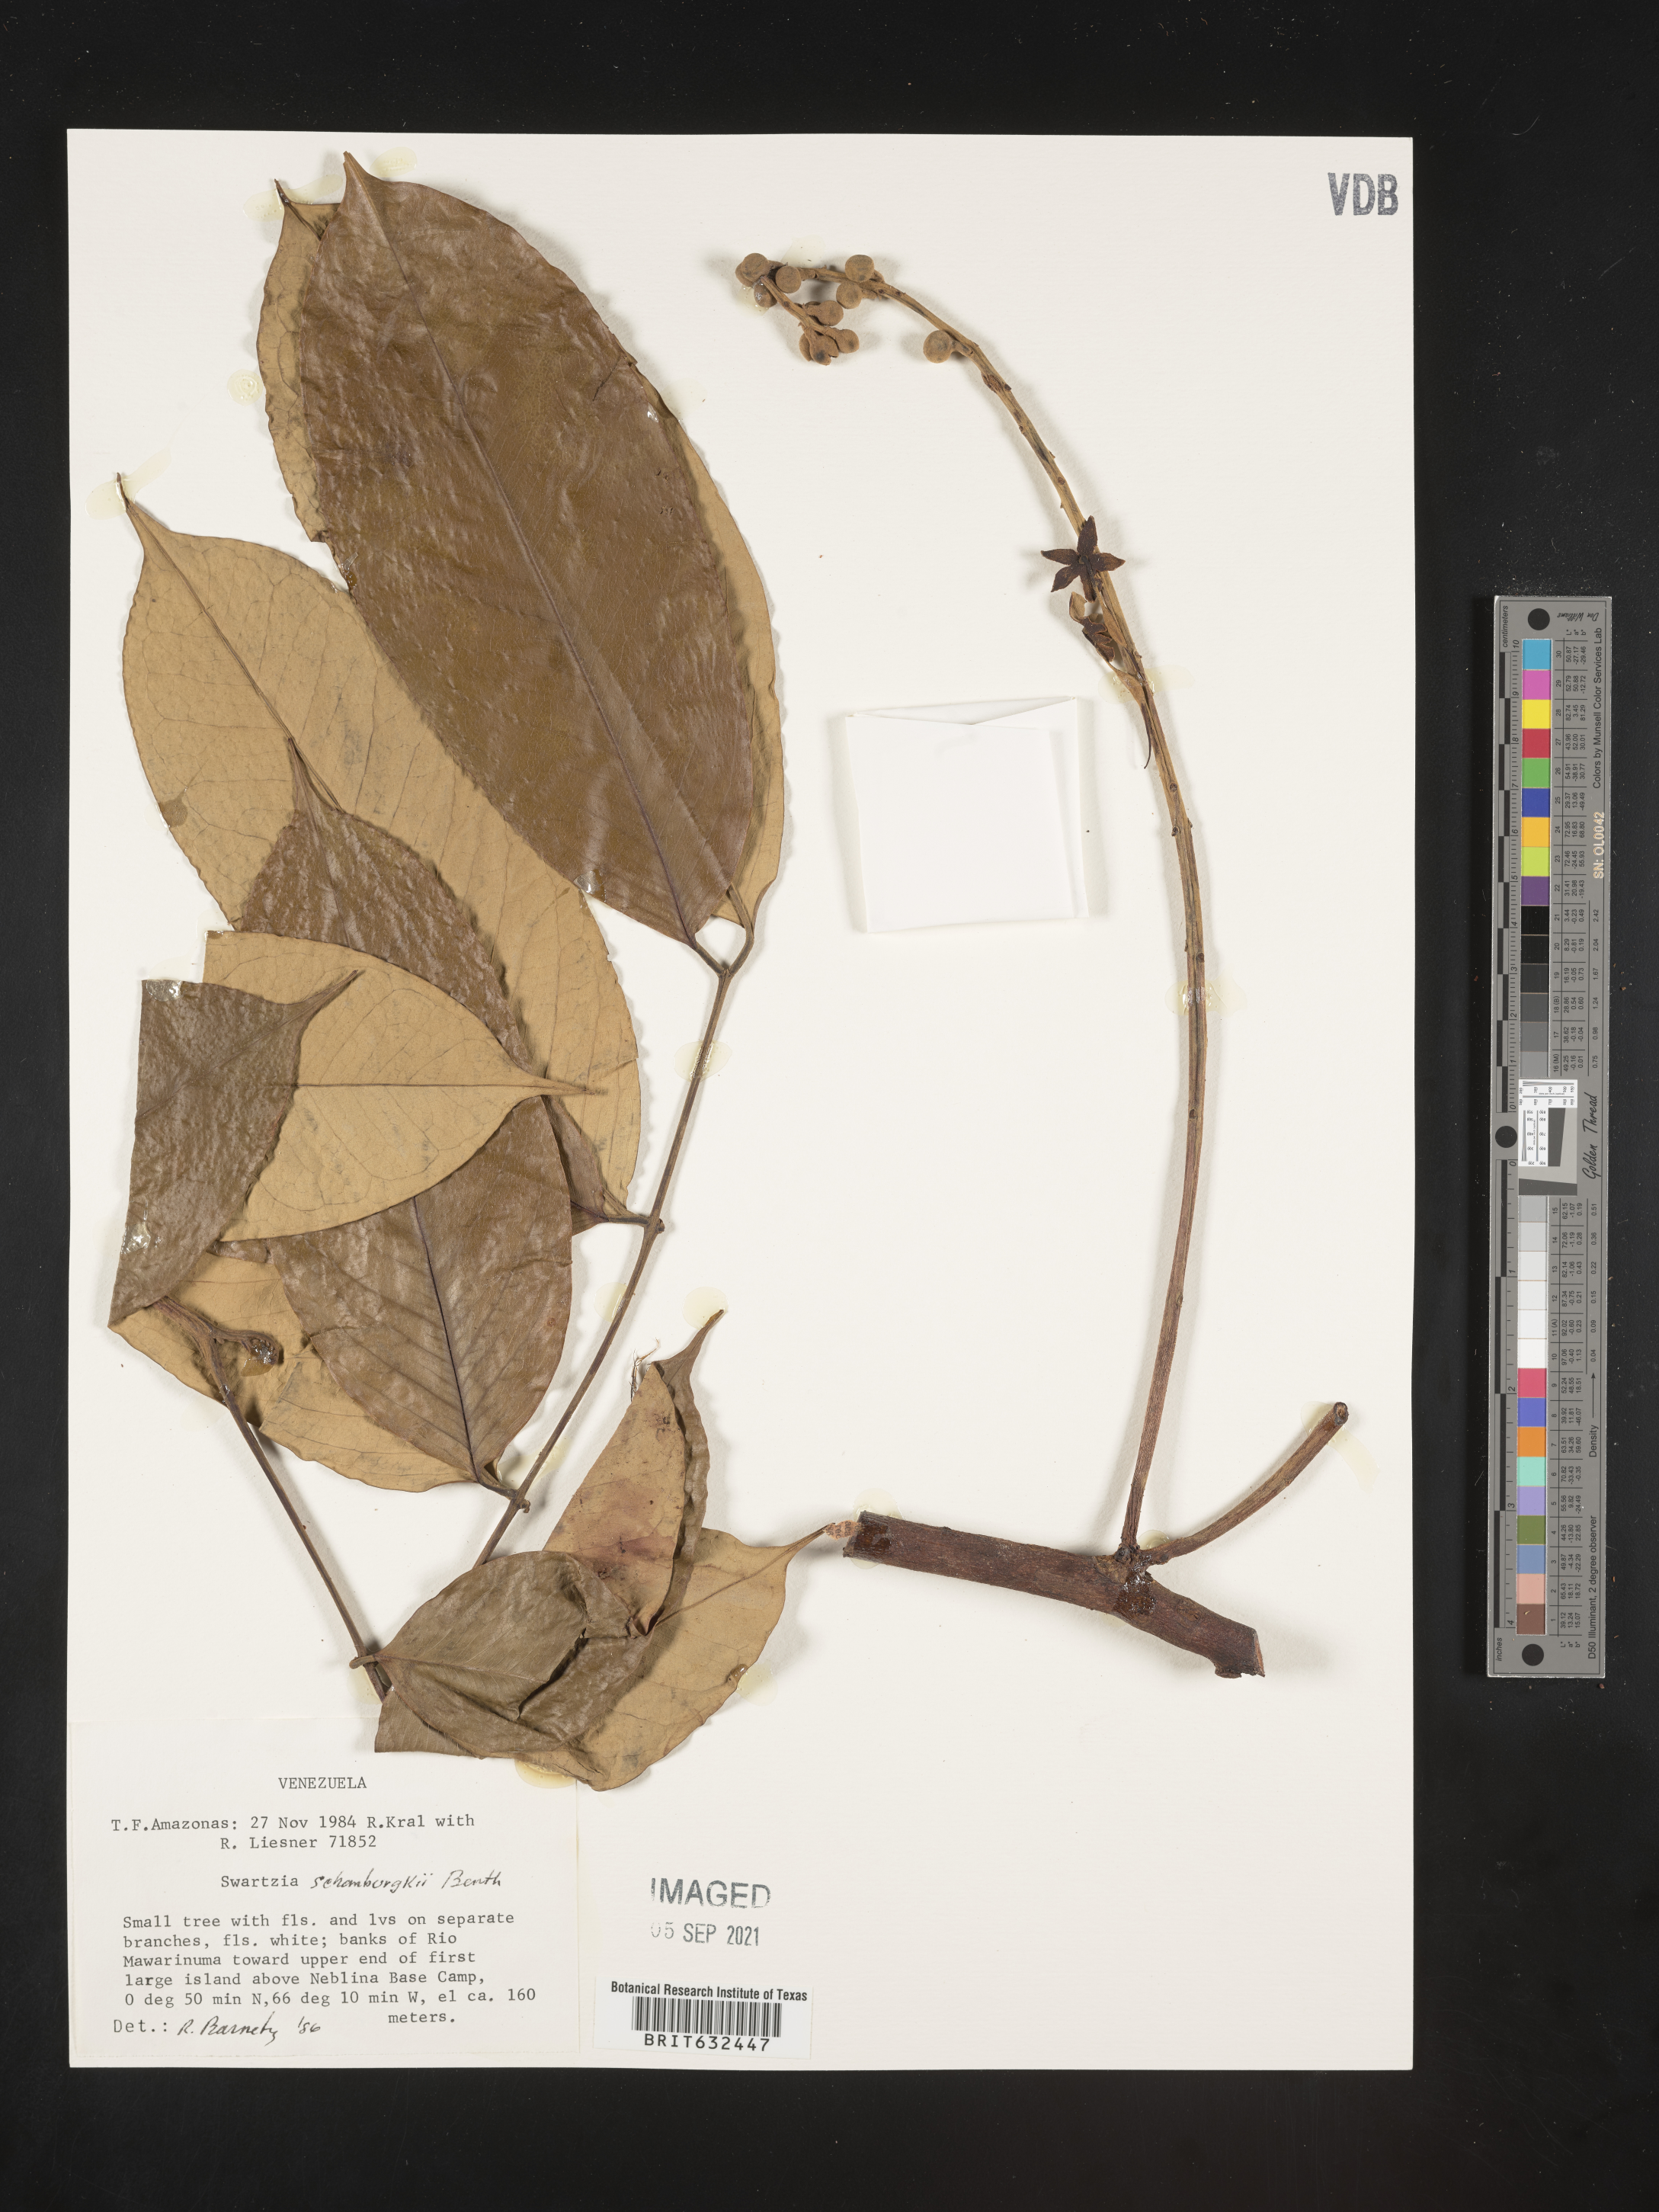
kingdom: Plantae
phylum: Tracheophyta
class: Magnoliopsida
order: Fabales
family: Fabaceae
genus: Swartzia
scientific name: Swartzia
